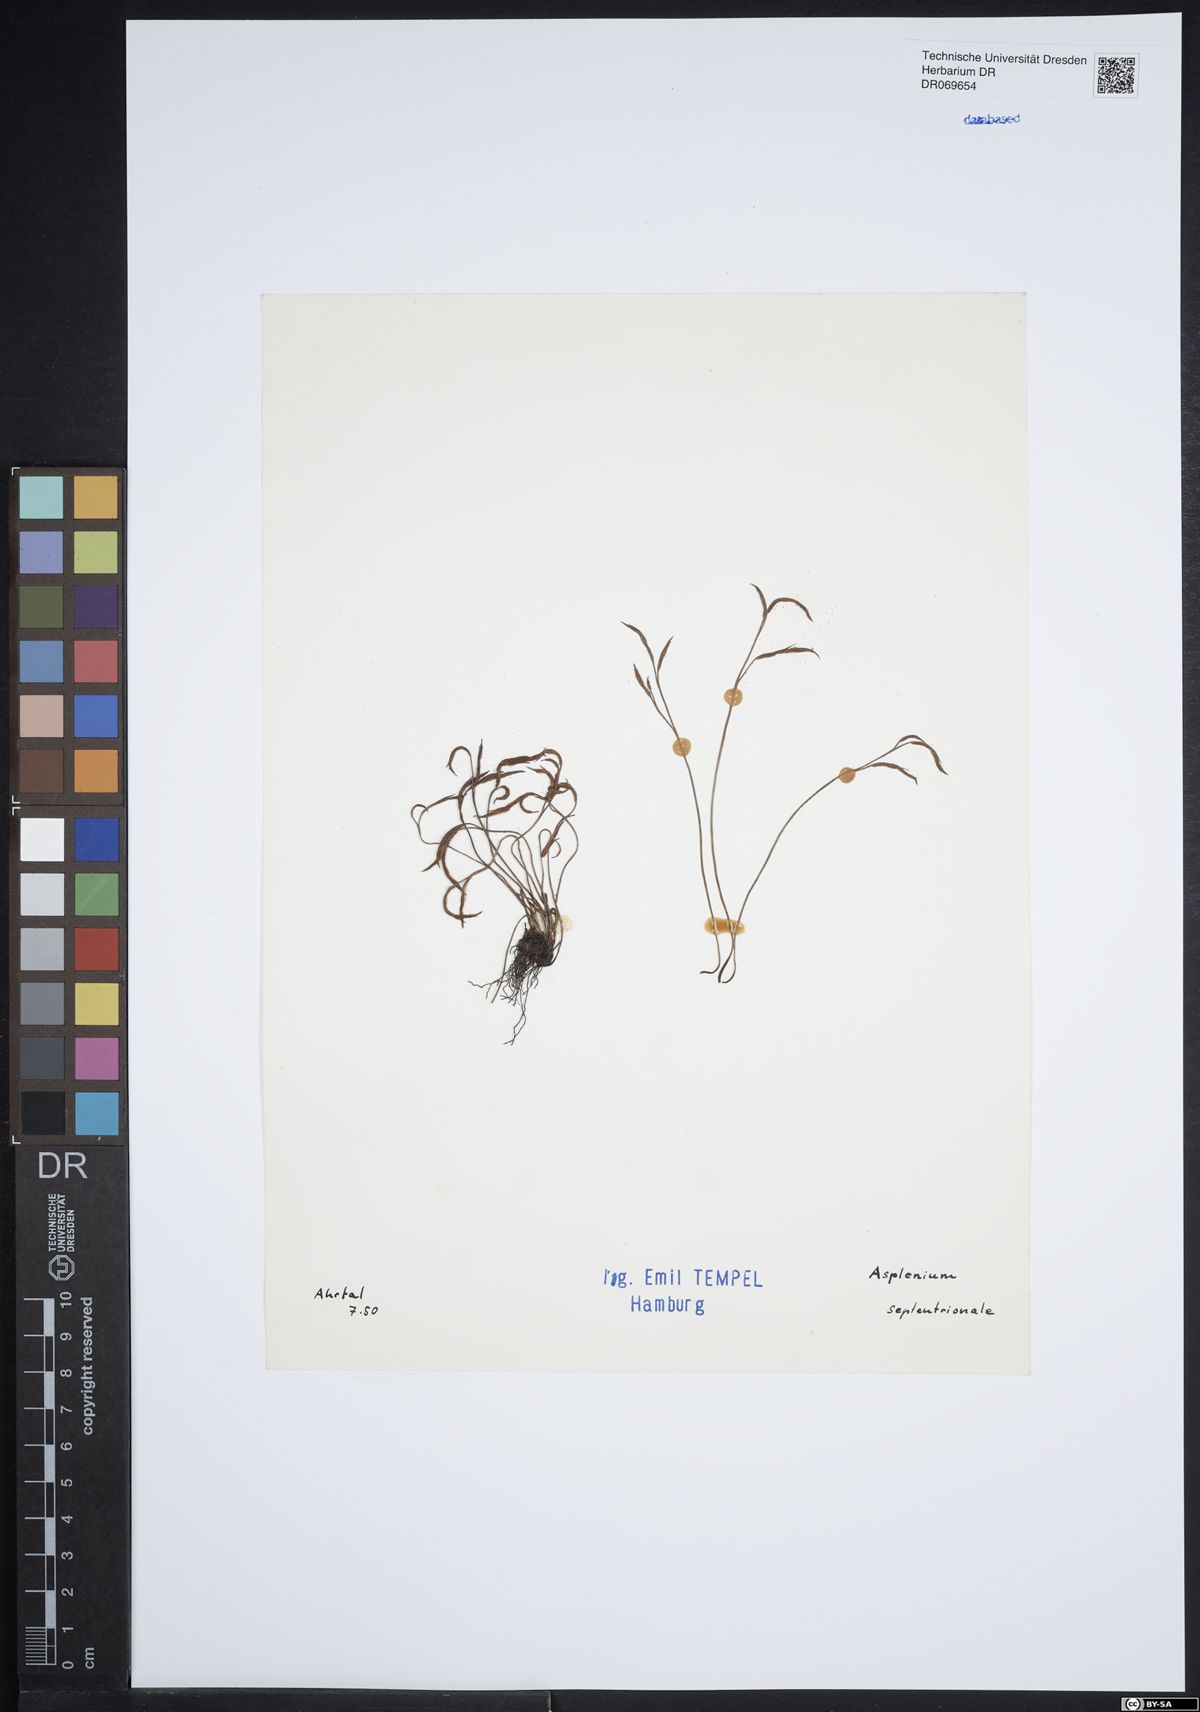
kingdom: Plantae
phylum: Tracheophyta
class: Polypodiopsida
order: Polypodiales
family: Aspleniaceae
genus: Asplenium
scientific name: Asplenium septentrionale
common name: Forked spleenwort
